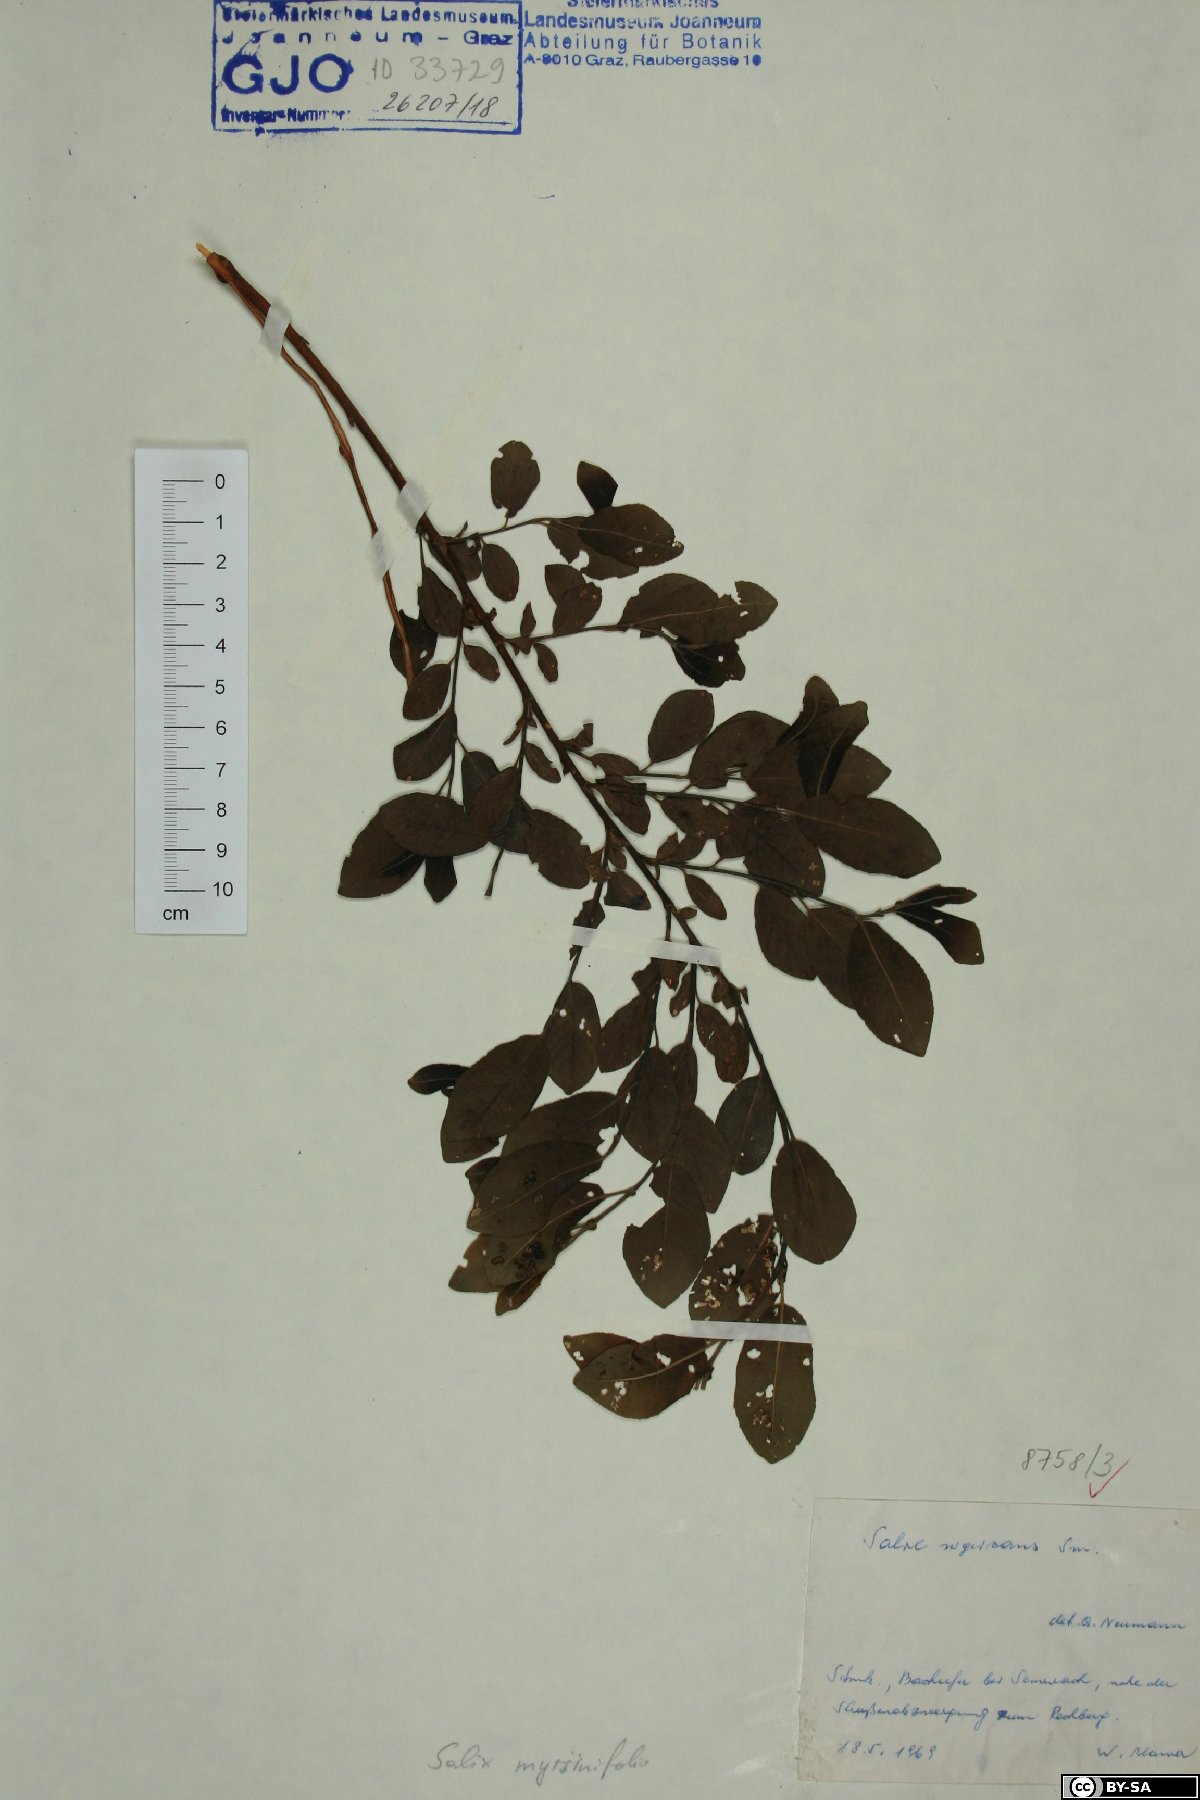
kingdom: Plantae
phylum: Tracheophyta
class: Magnoliopsida
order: Malpighiales
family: Salicaceae
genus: Salix
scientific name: Salix myrsinifolia
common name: Dark-leaved willow
